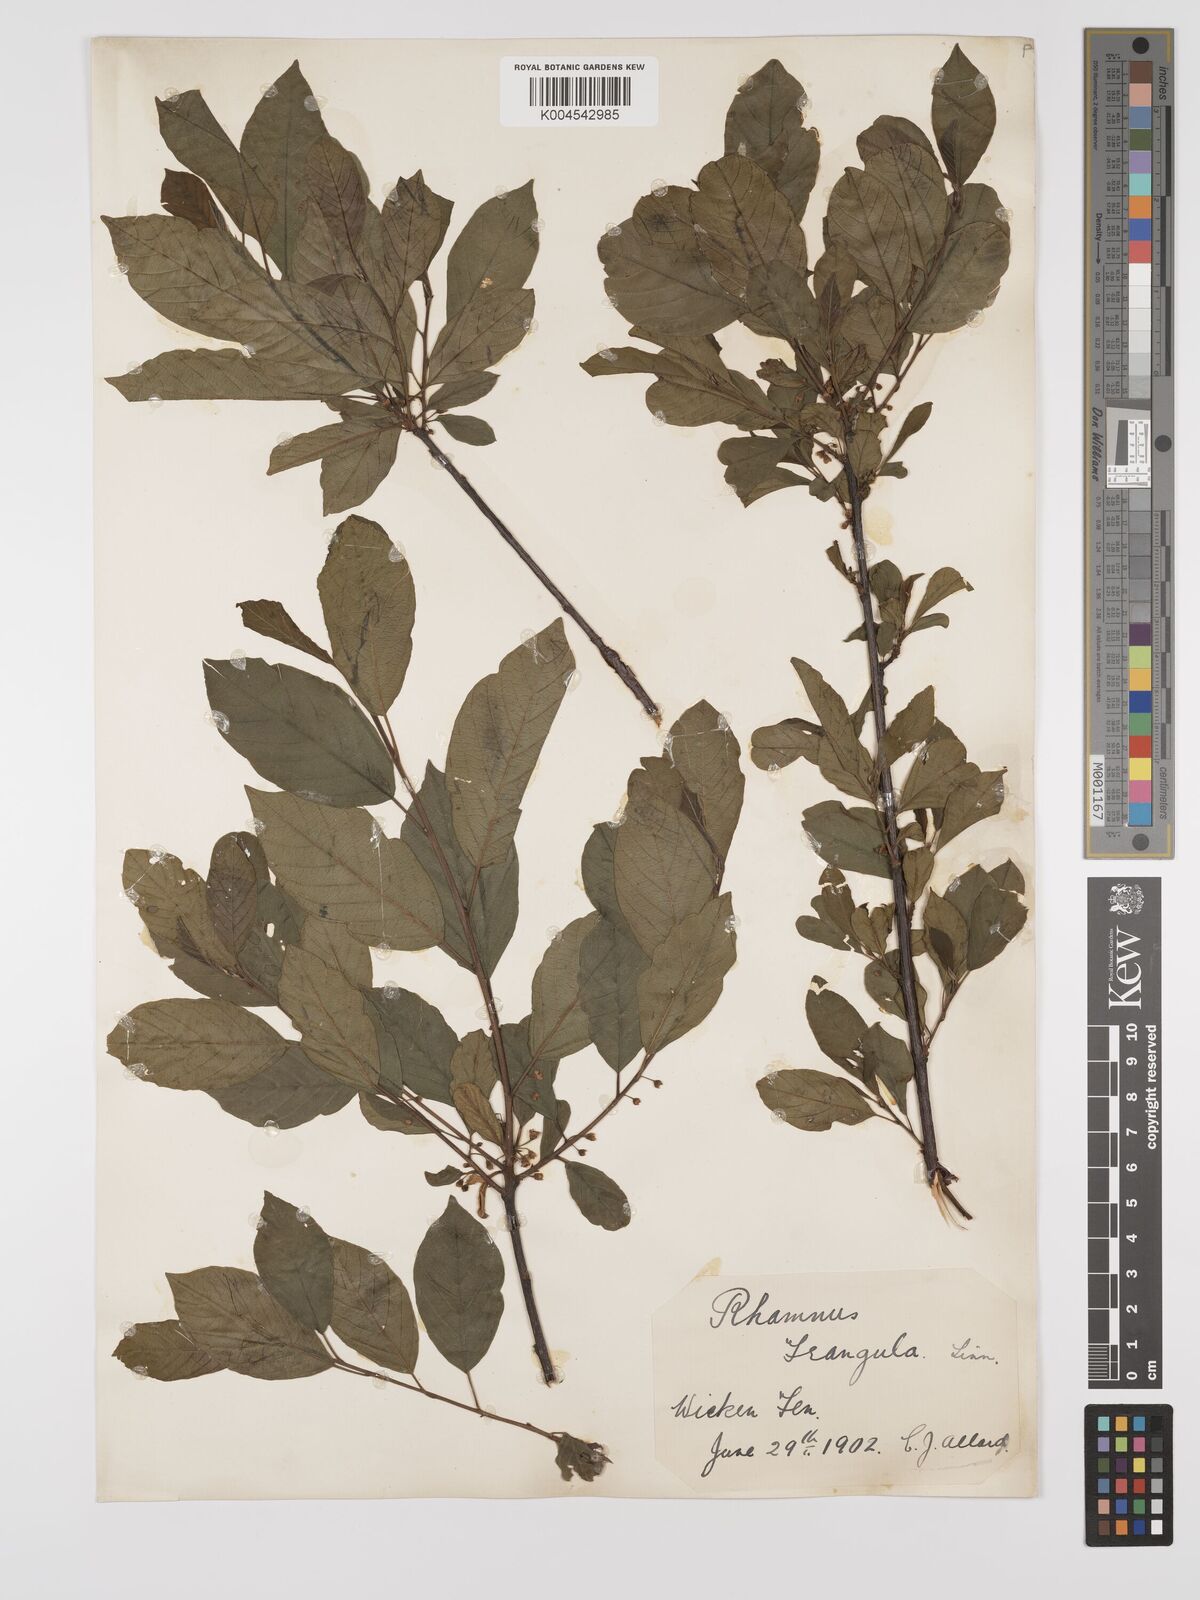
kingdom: Plantae
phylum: Tracheophyta
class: Magnoliopsida
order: Rosales
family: Rhamnaceae
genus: Frangula
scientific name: Frangula alnus
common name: Alder buckthorn
